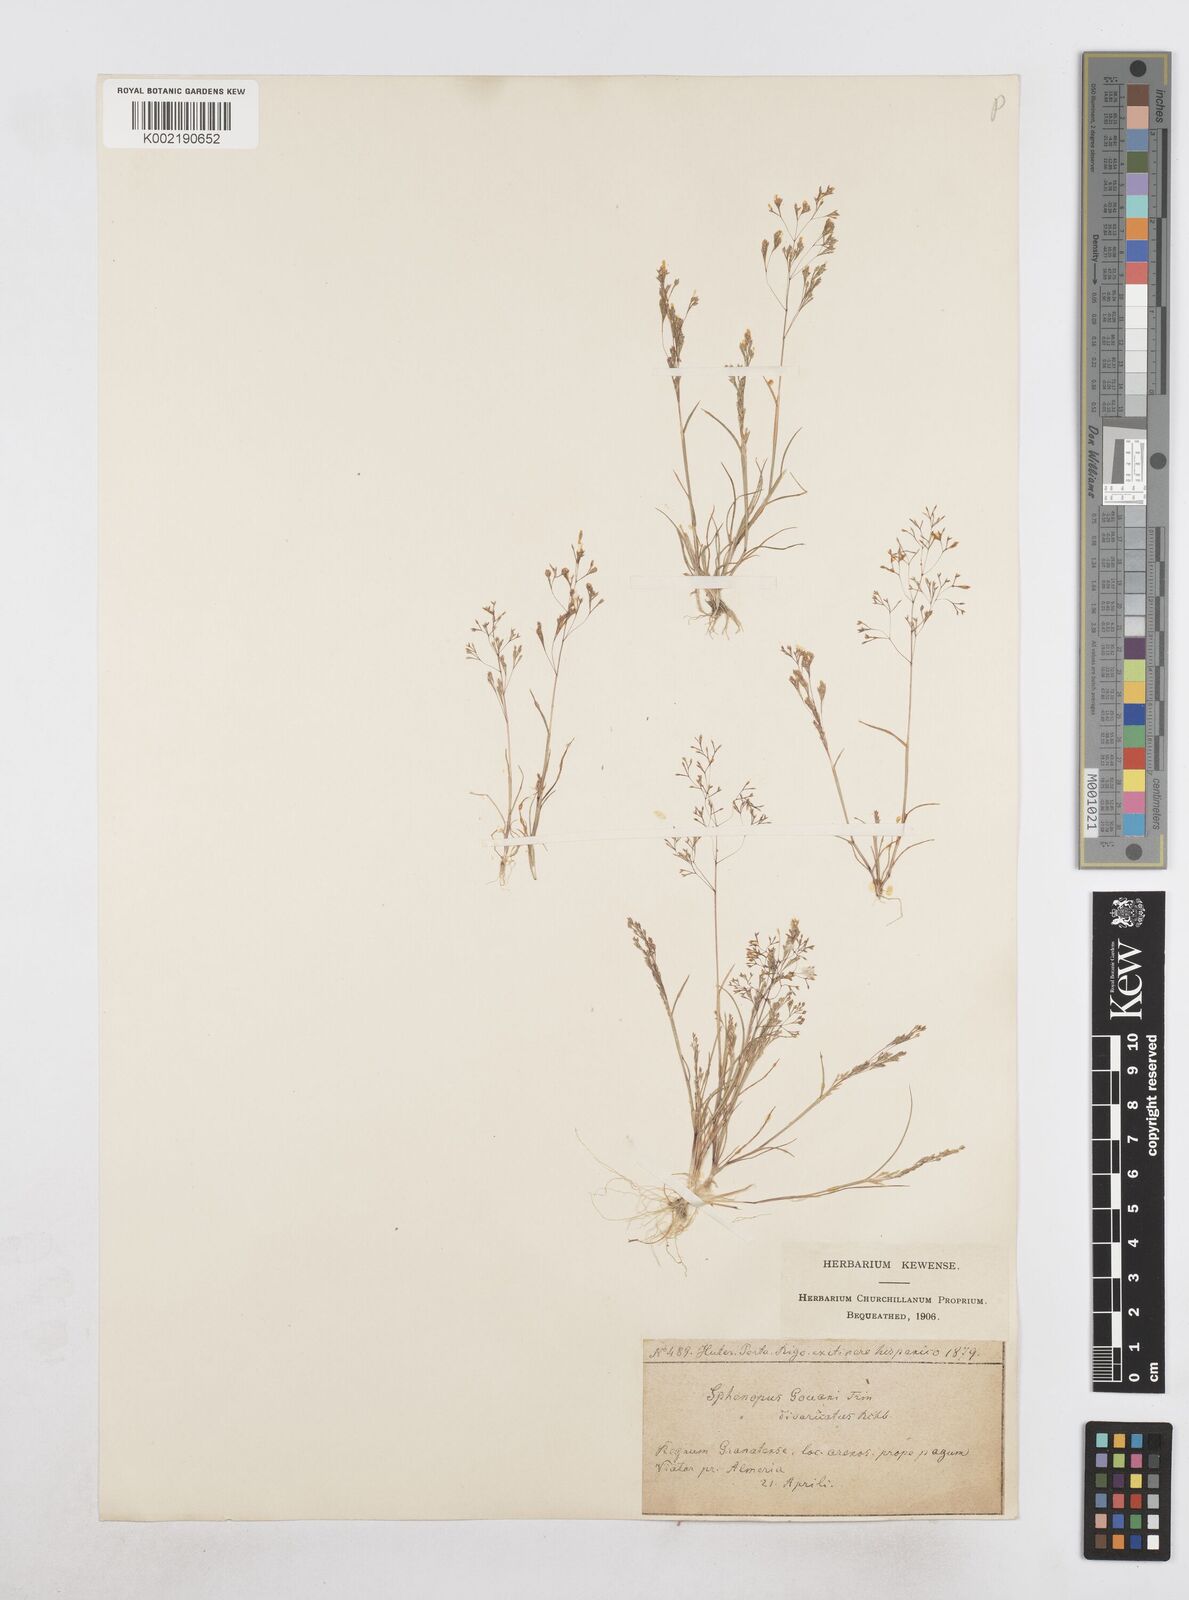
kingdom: Plantae
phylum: Tracheophyta
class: Liliopsida
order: Poales
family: Poaceae
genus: Sphenopus
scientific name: Sphenopus divaricatus
